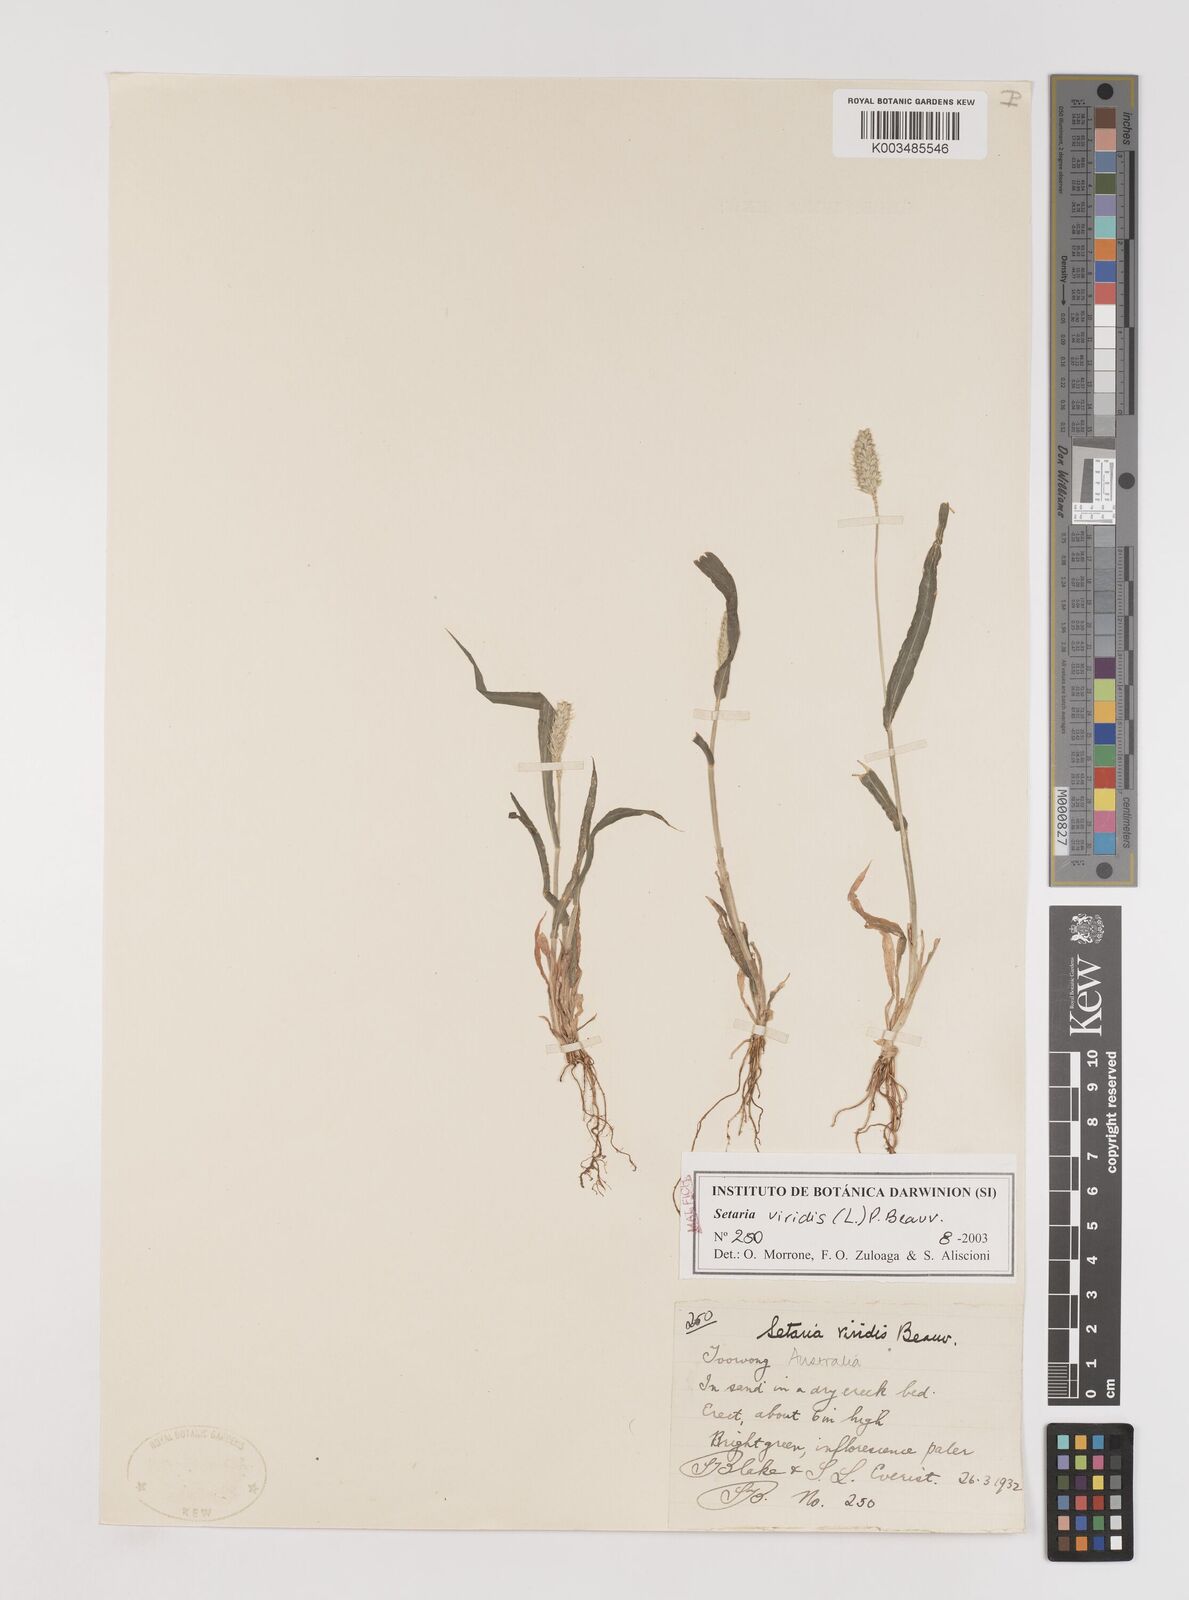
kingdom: Plantae
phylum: Tracheophyta
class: Liliopsida
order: Poales
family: Poaceae
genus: Setaria
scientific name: Setaria viridis
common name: Green bristlegrass
